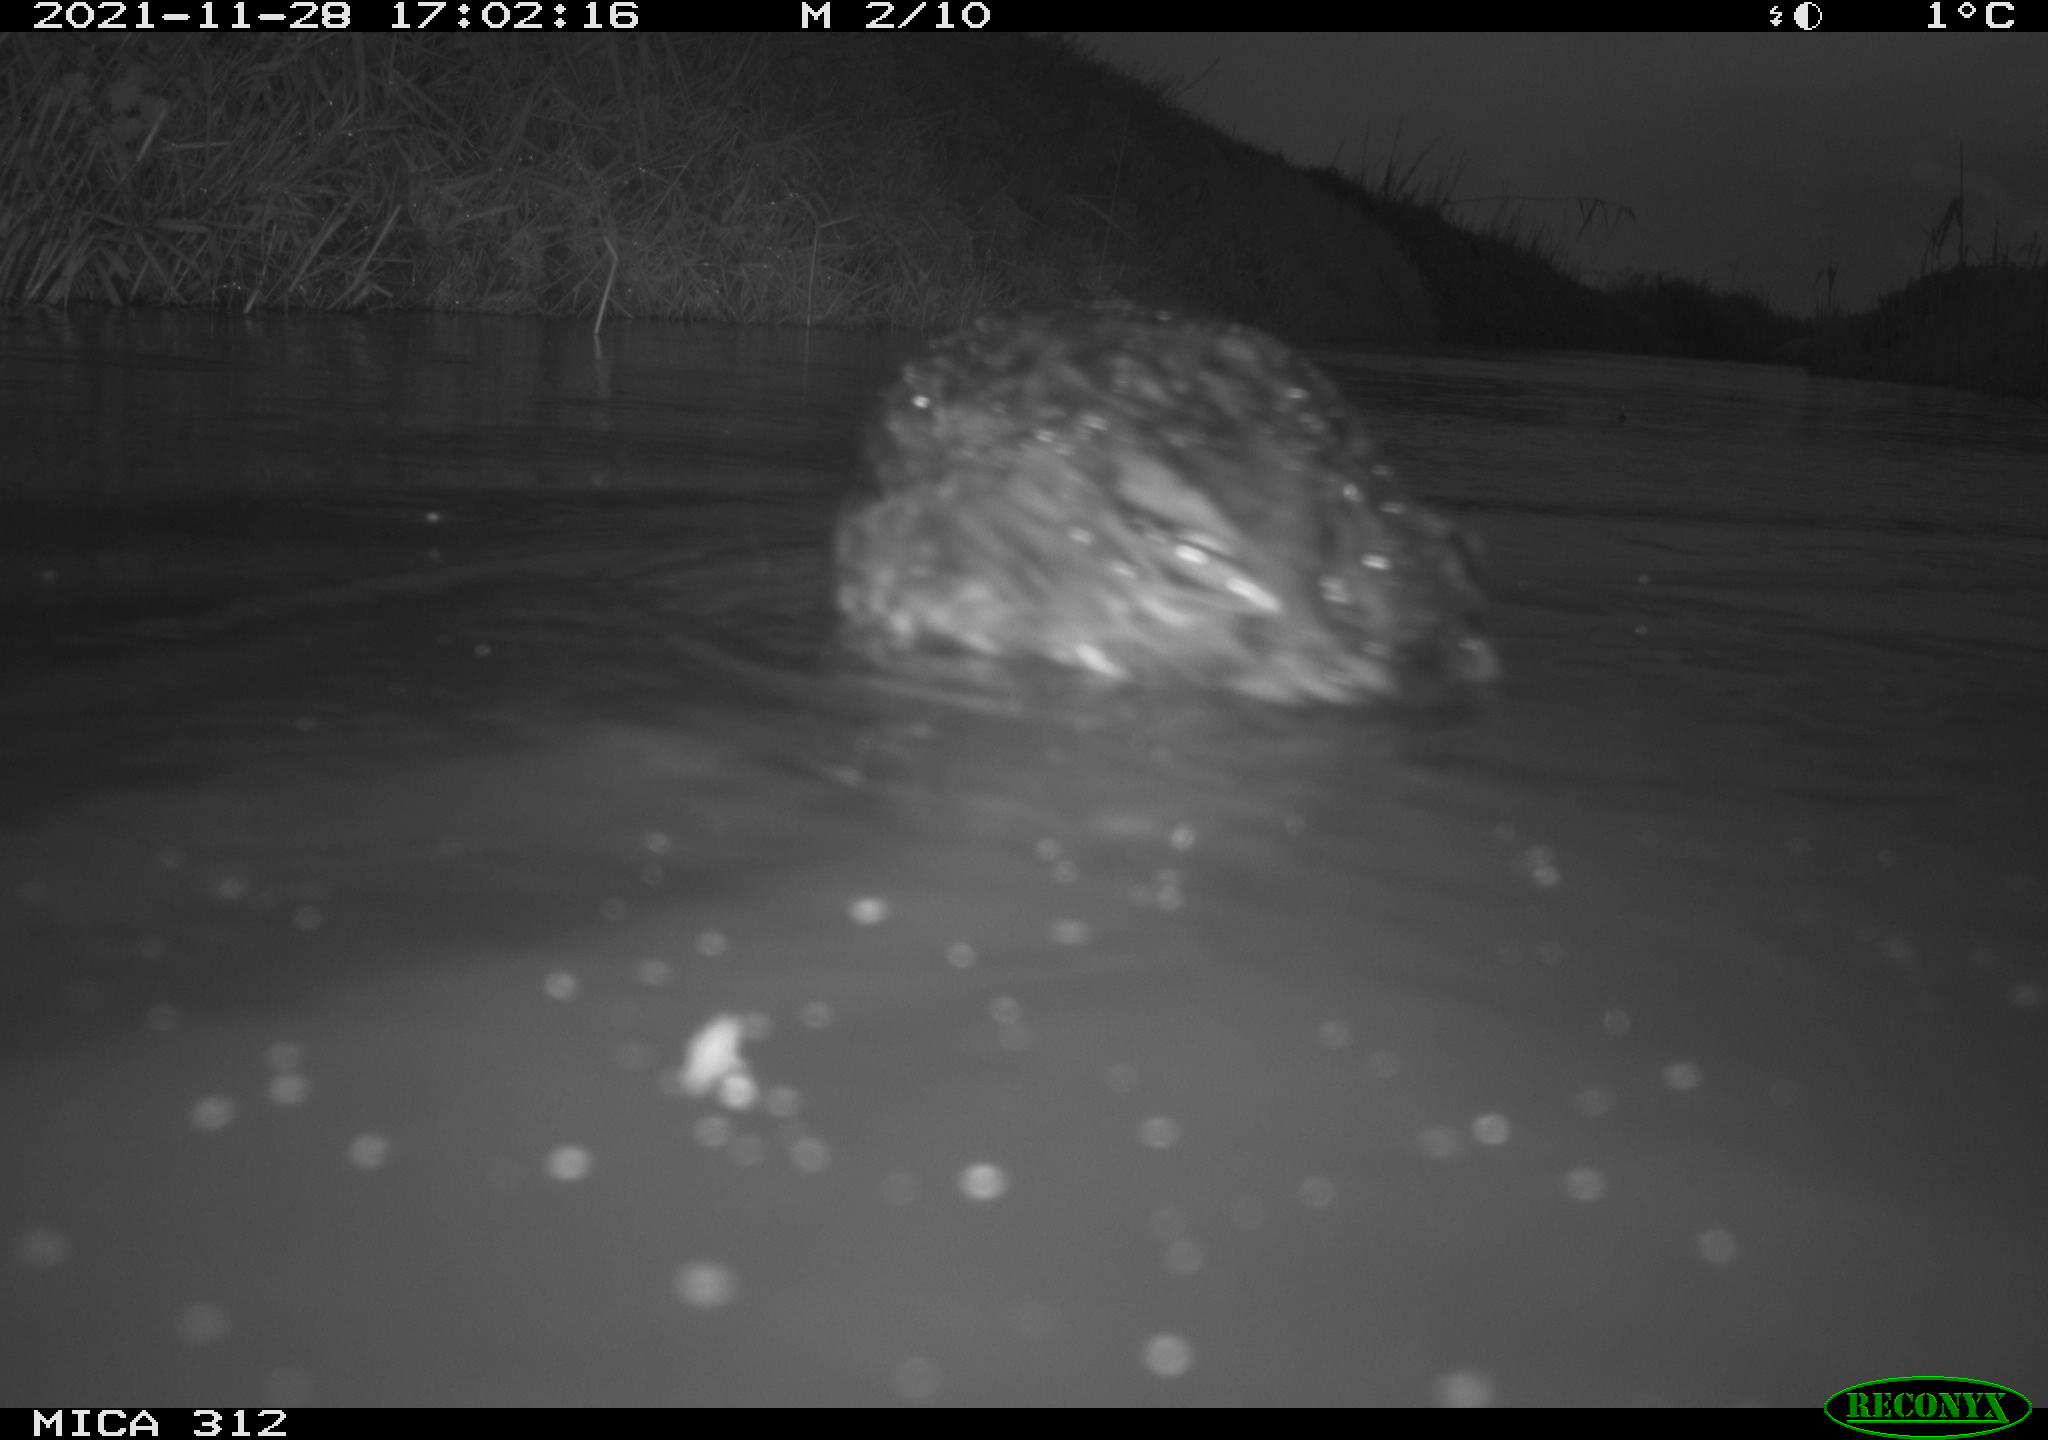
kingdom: Animalia
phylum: Chordata
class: Aves
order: Gruiformes
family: Rallidae
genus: Fulica
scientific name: Fulica atra
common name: Eurasian coot
